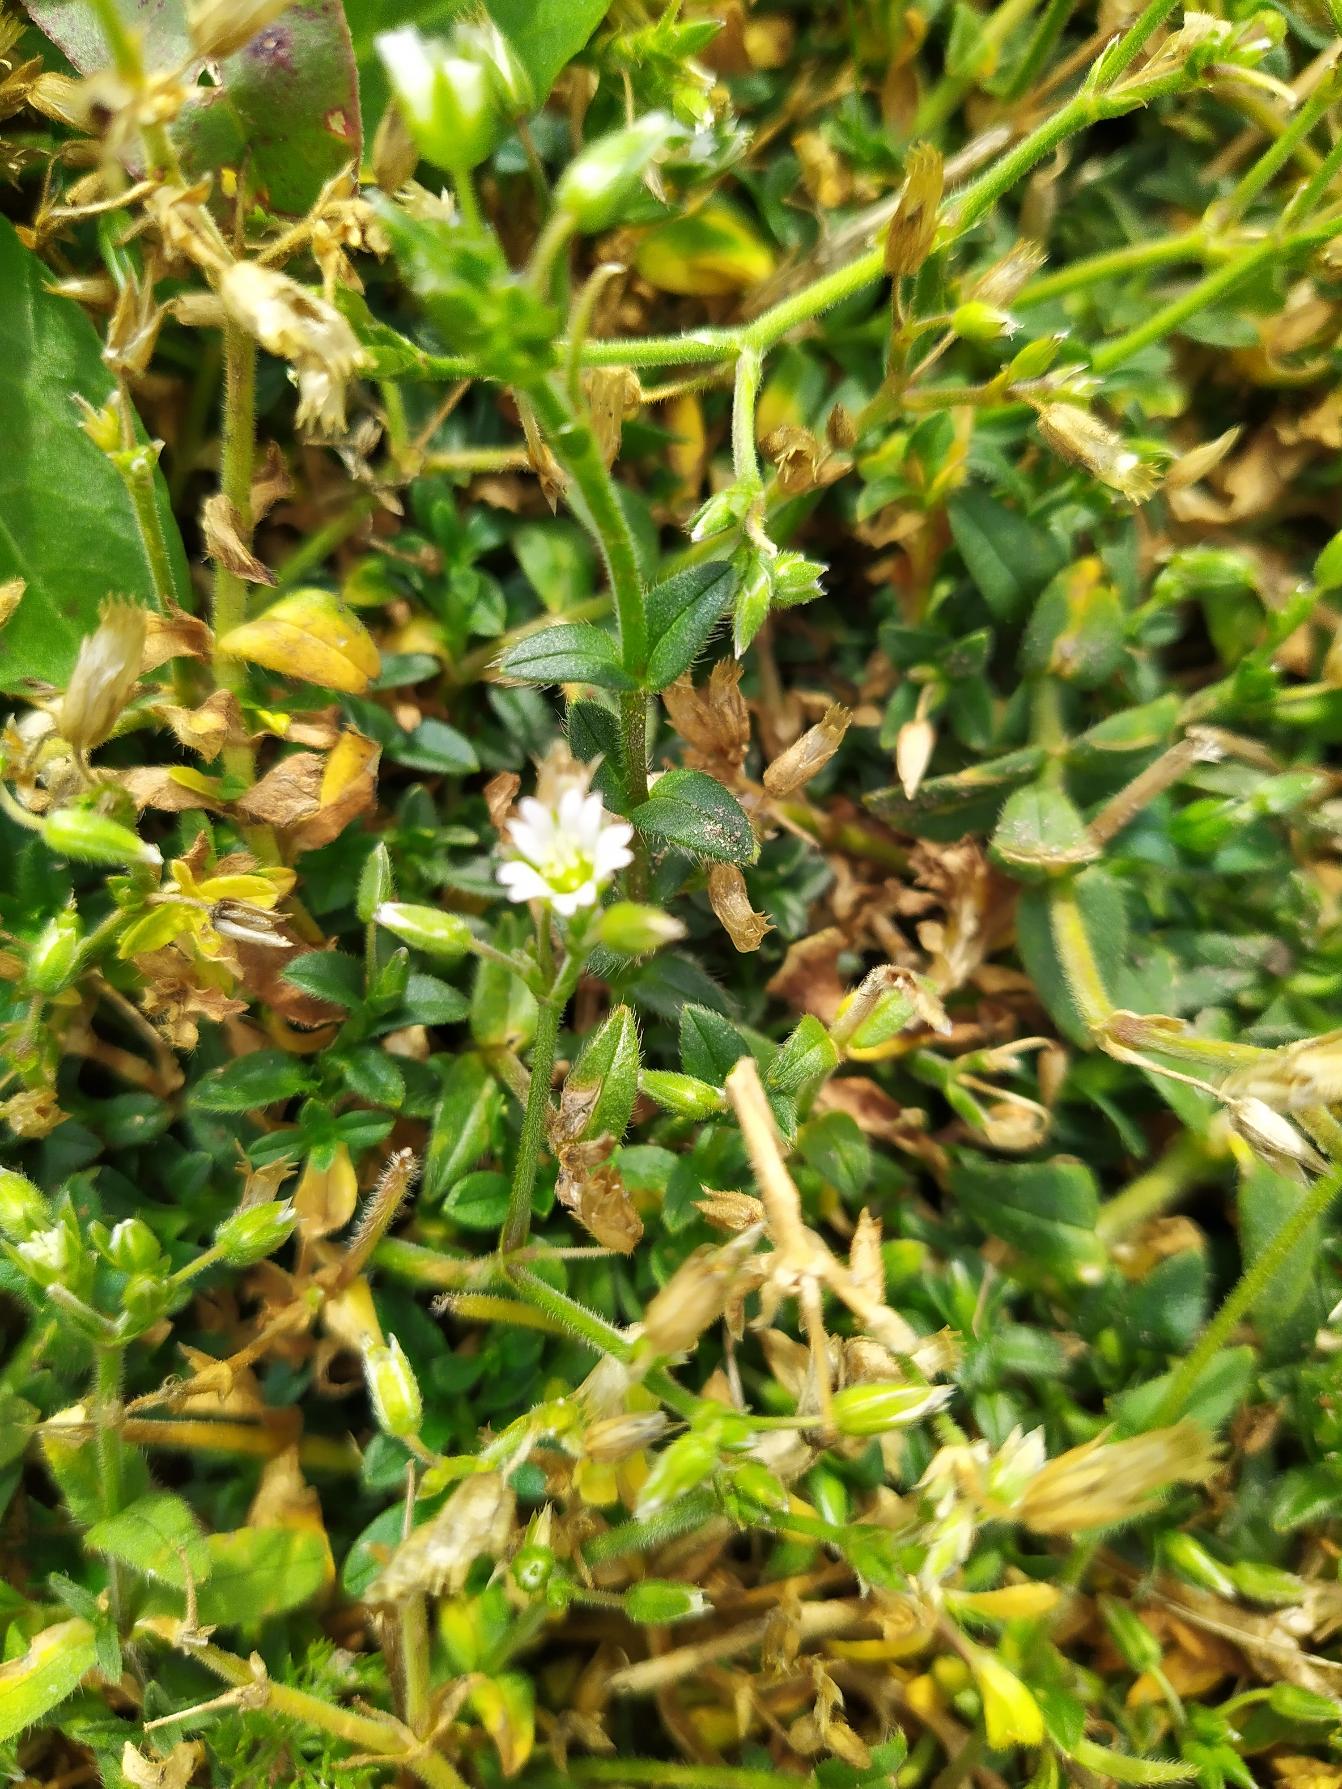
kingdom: Plantae
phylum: Tracheophyta
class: Magnoliopsida
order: Caryophyllales
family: Caryophyllaceae
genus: Cerastium
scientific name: Cerastium fontanum
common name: Almindelig hønsetarm
